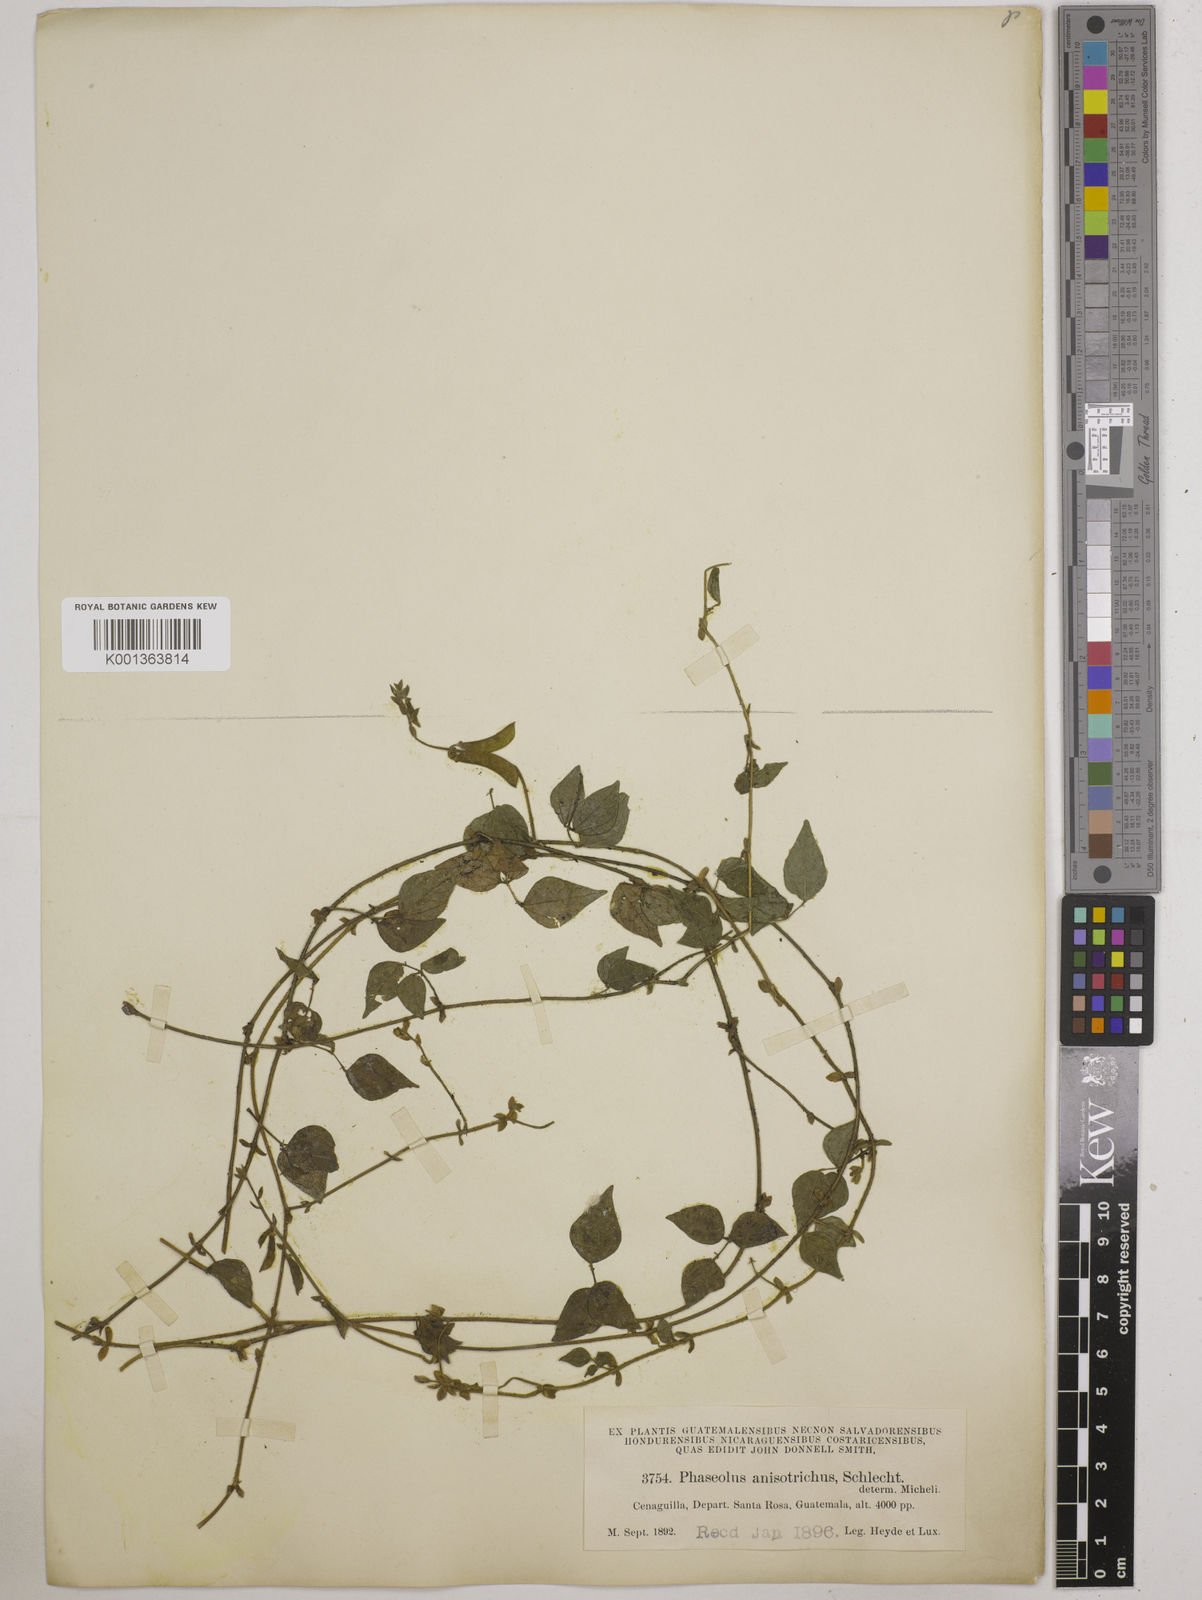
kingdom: Plantae
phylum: Tracheophyta
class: Magnoliopsida
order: Fabales
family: Fabaceae
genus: Phaseolus
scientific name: Phaseolus
